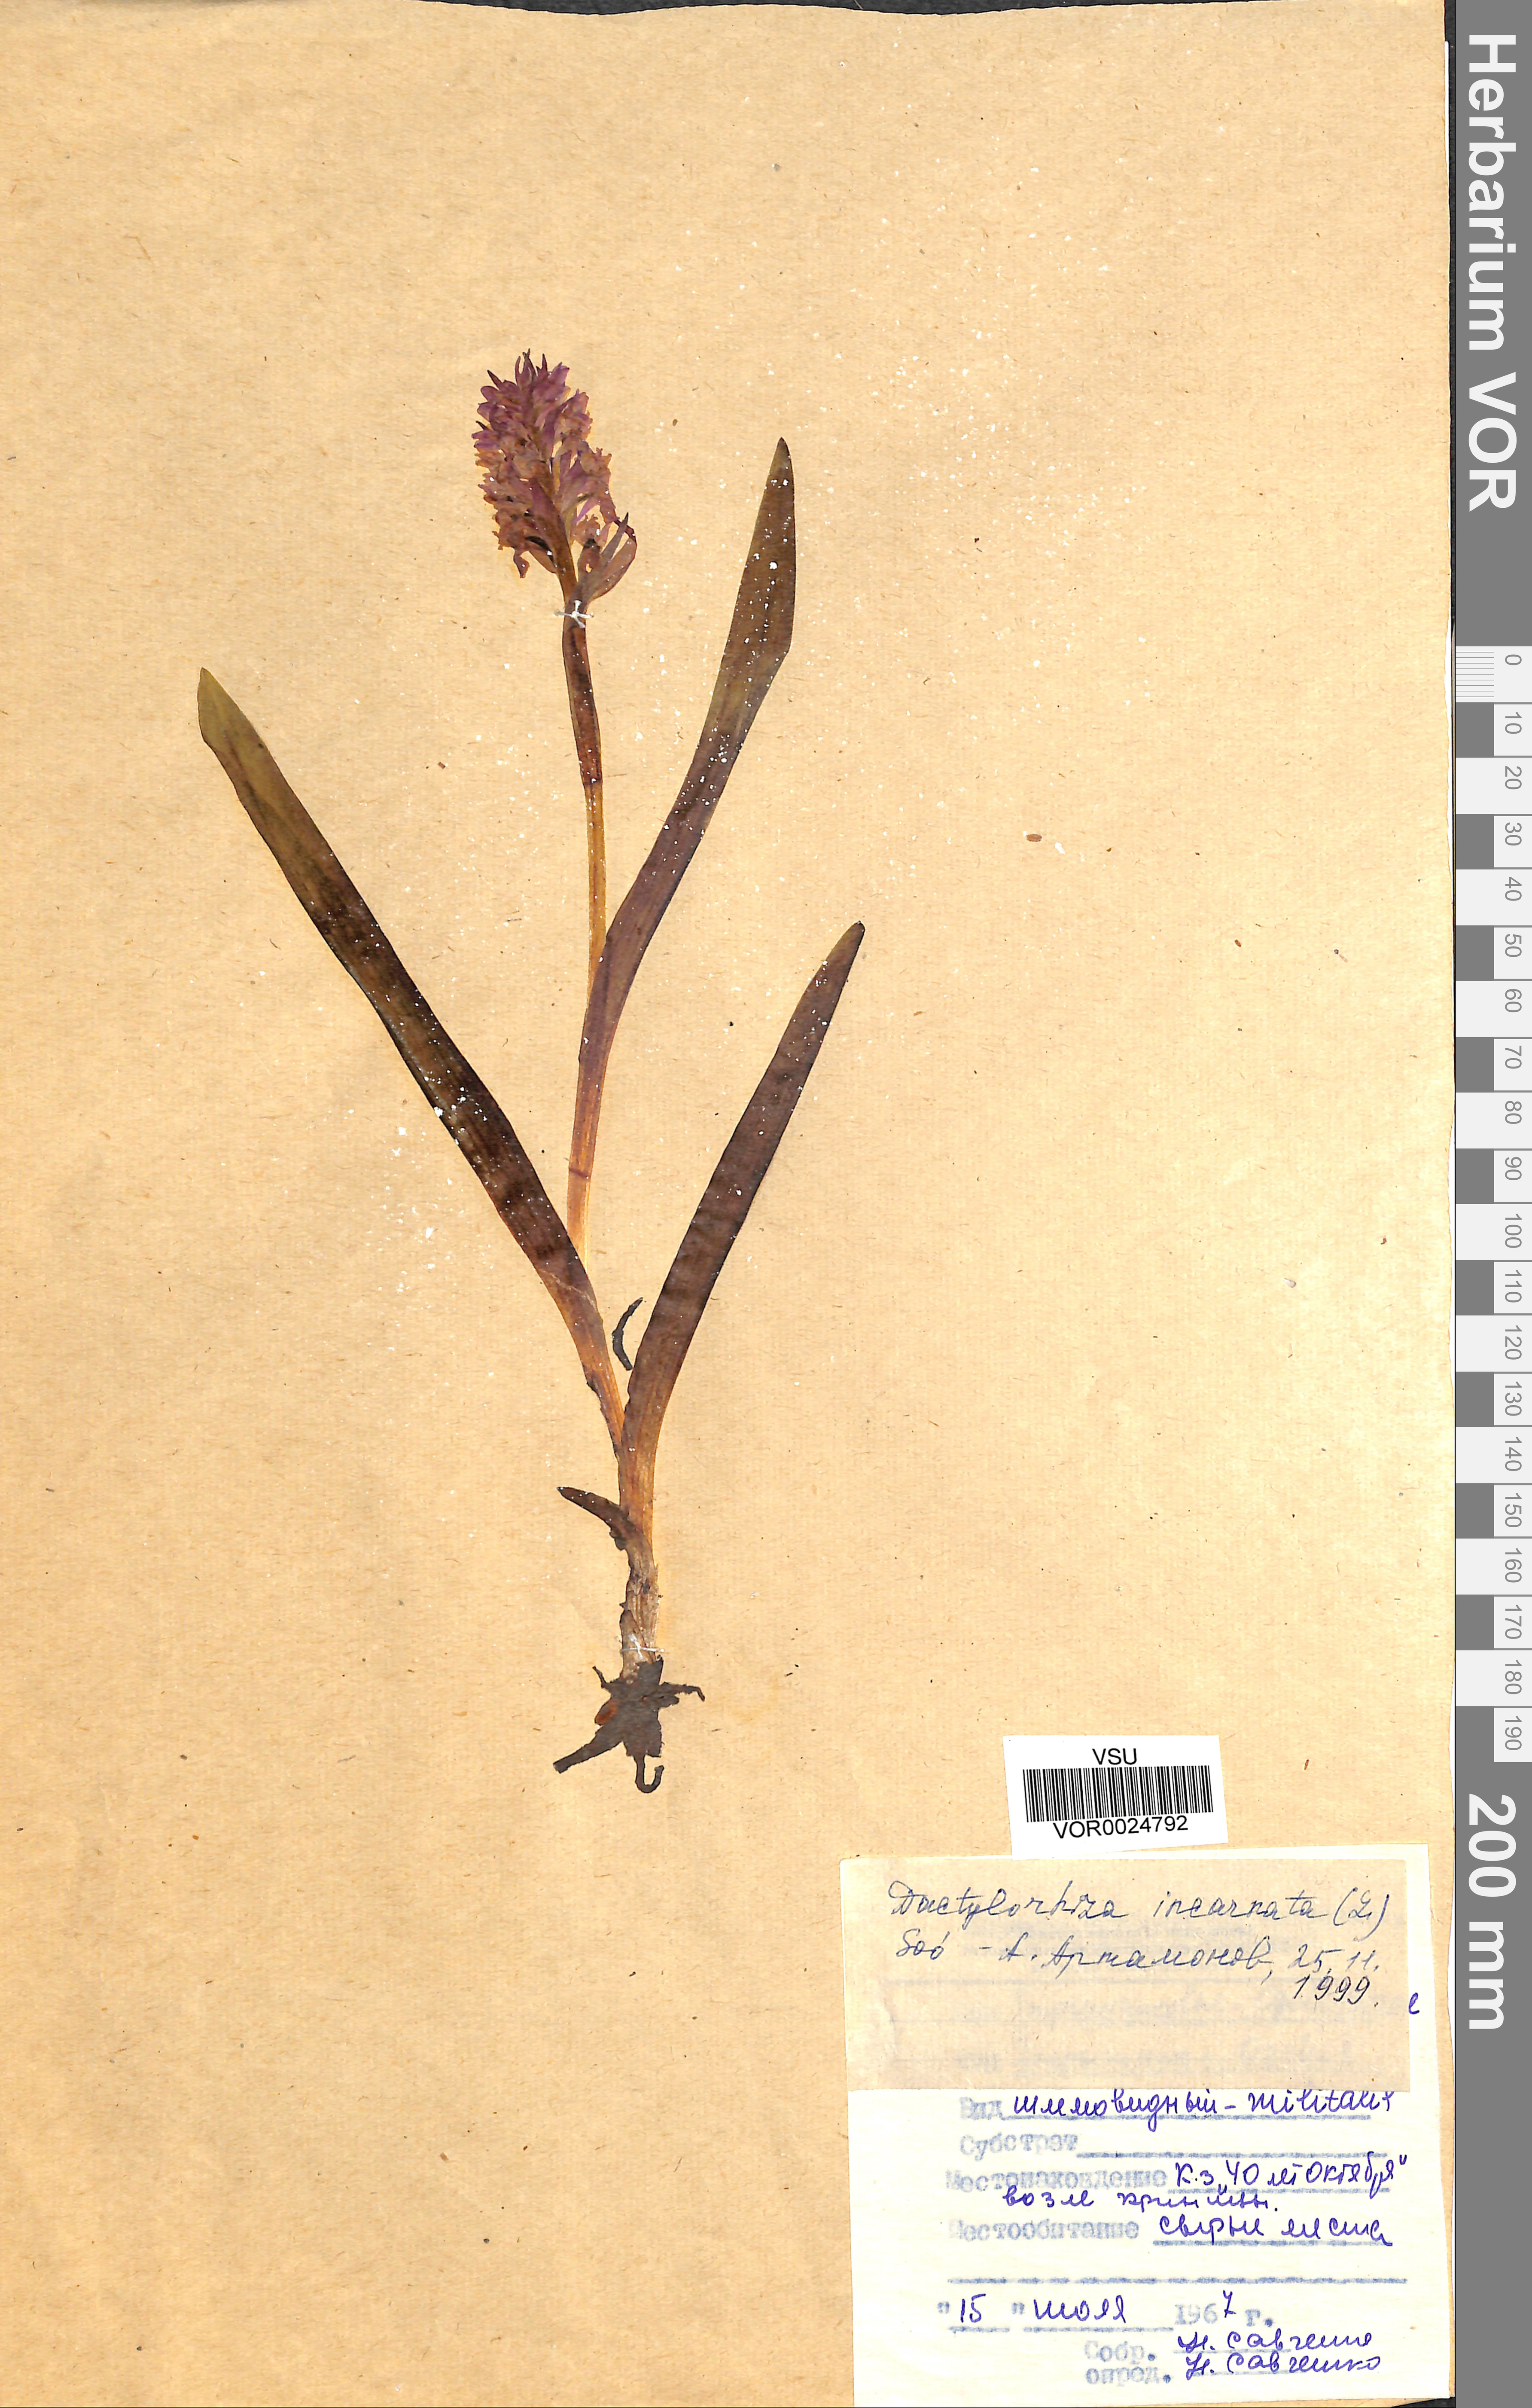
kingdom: Plantae
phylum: Tracheophyta
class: Liliopsida
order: Asparagales
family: Orchidaceae
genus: Dactylorhiza
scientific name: Dactylorhiza incarnata
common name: Early marsh-orchid
